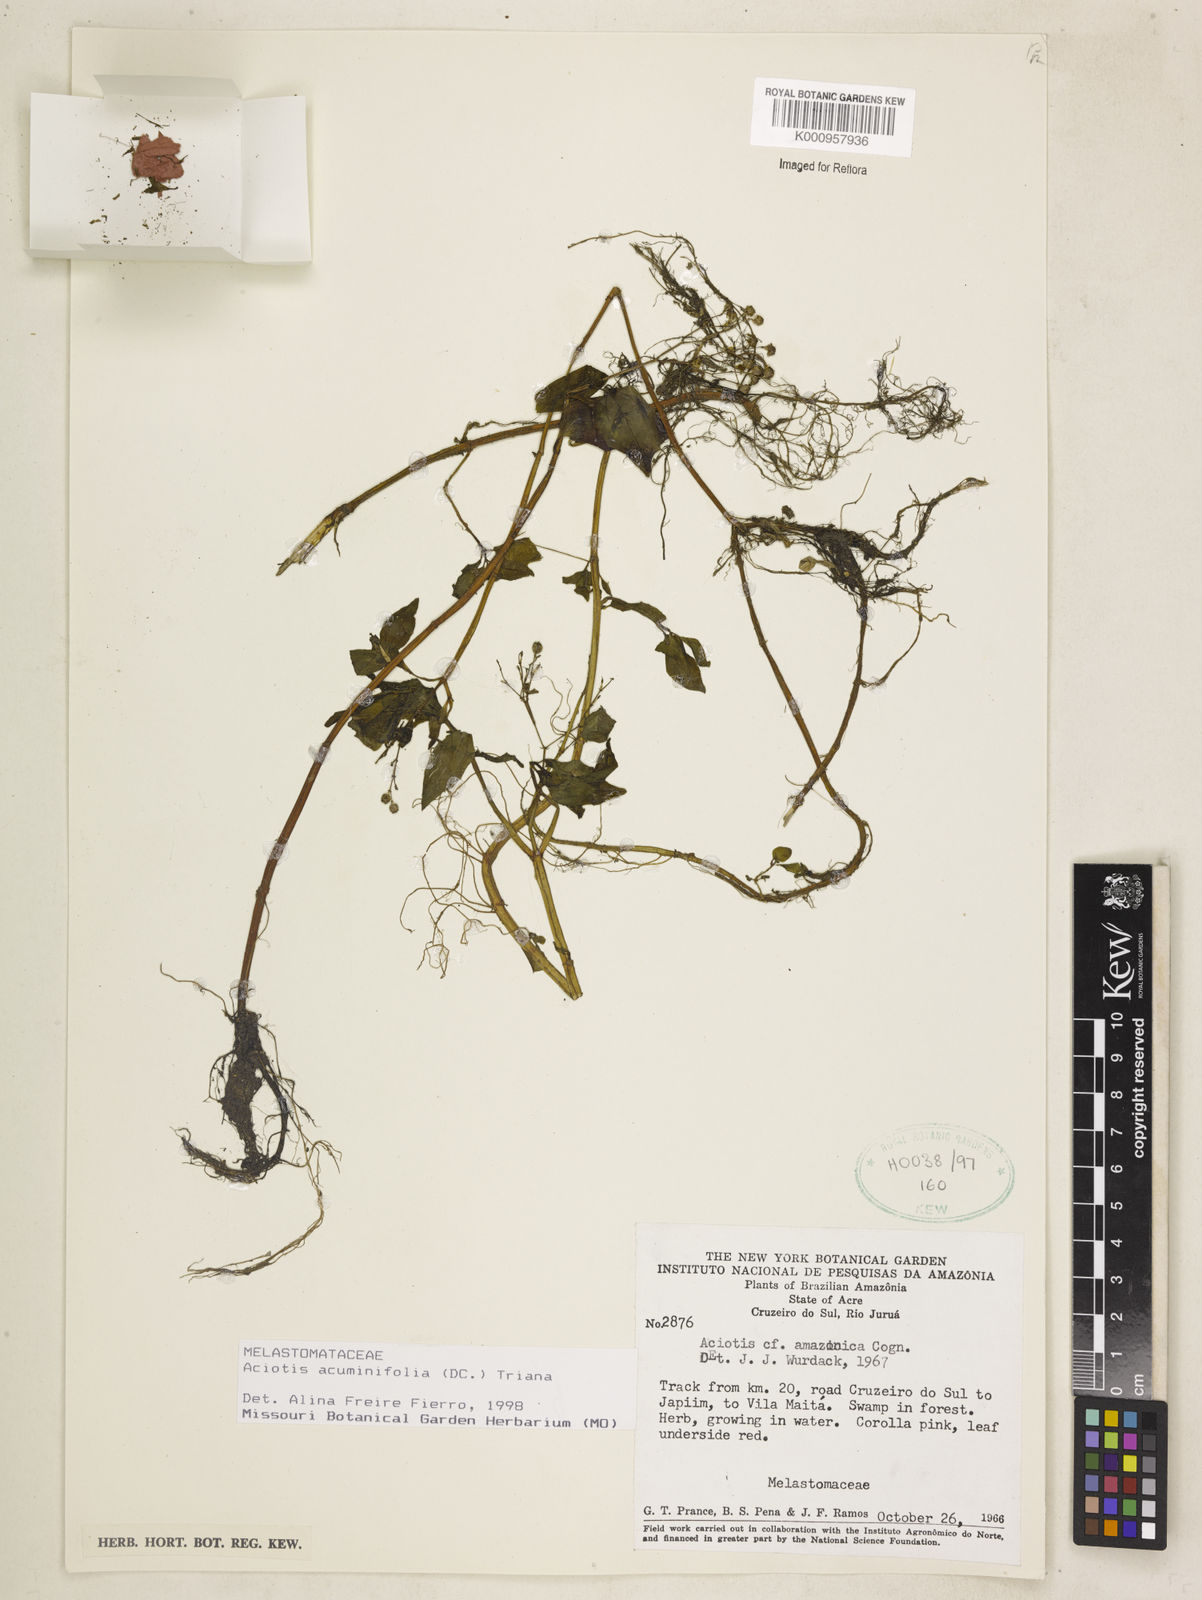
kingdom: Plantae
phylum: Tracheophyta
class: Magnoliopsida
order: Myrtales
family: Melastomataceae
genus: Aciotis
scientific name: Aciotis acuminifolia
